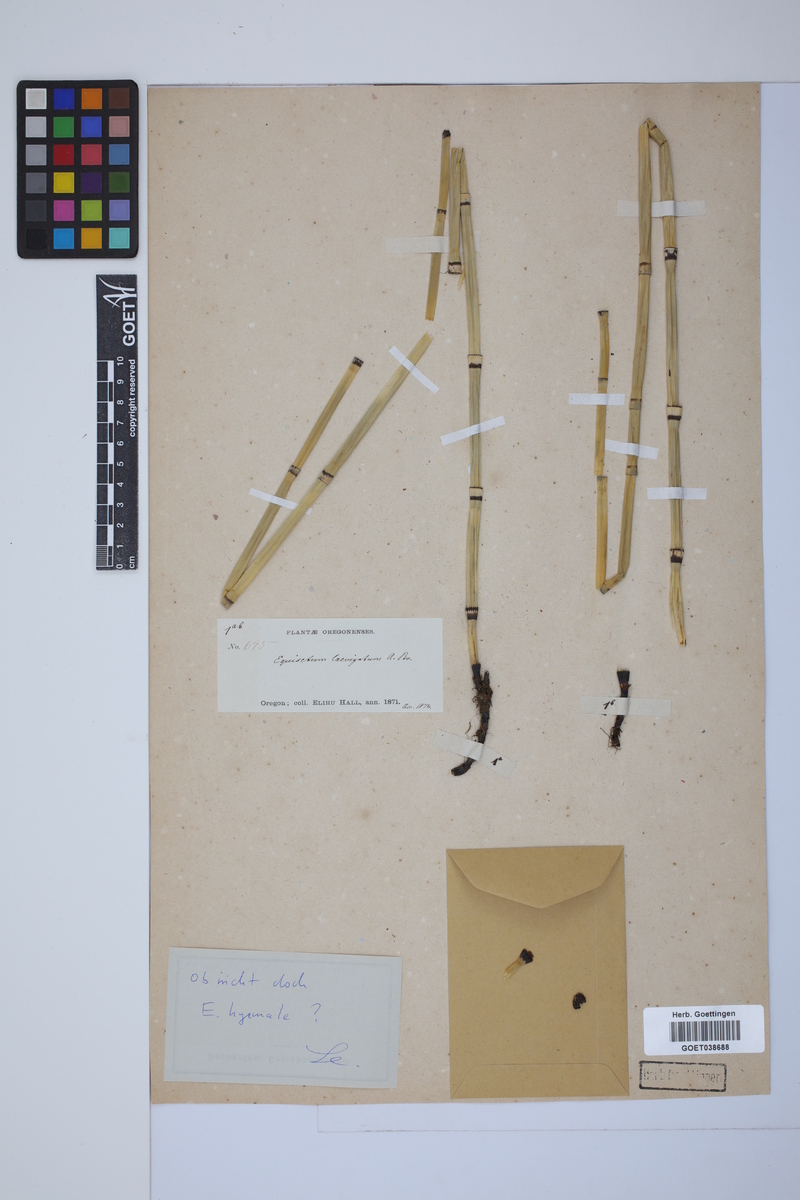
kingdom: Plantae
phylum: Tracheophyta
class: Polypodiopsida
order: Equisetales
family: Equisetaceae
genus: Equisetum
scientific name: Equisetum laevigatum
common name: Smooth scouring-rush
